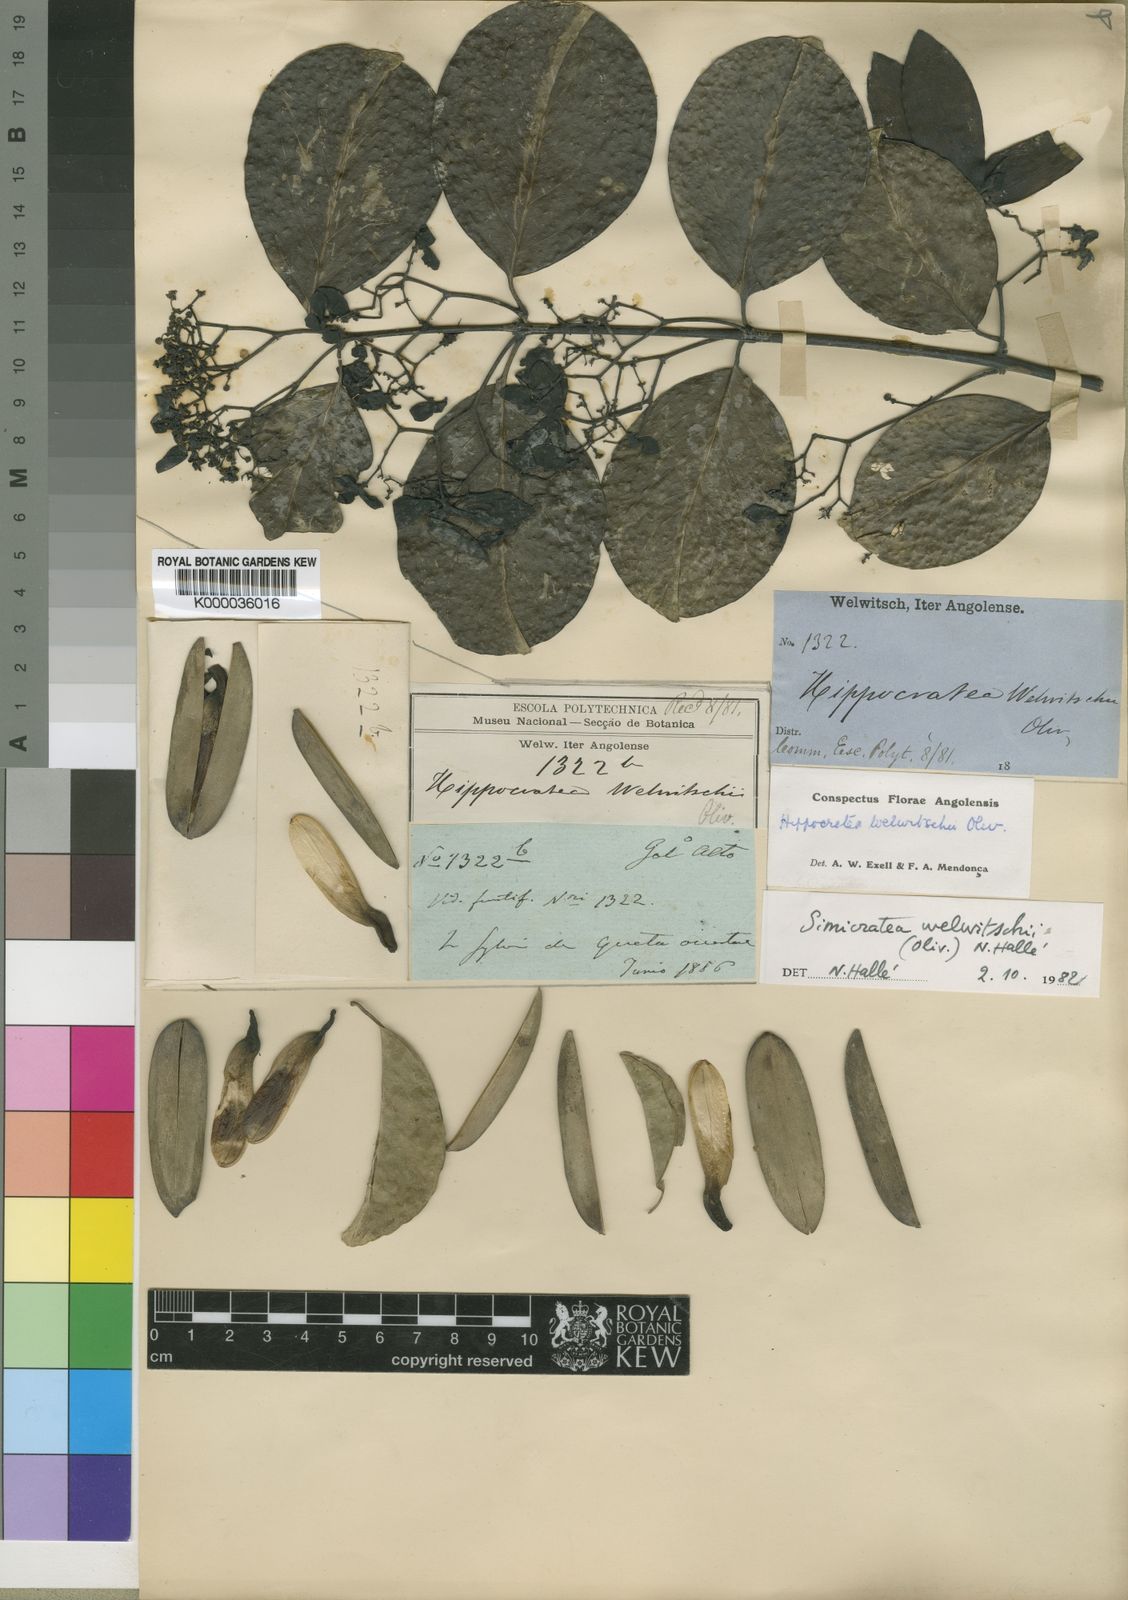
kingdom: Plantae
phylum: Tracheophyta
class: Magnoliopsida
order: Celastrales
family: Celastraceae
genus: Simicratea
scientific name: Simicratea
